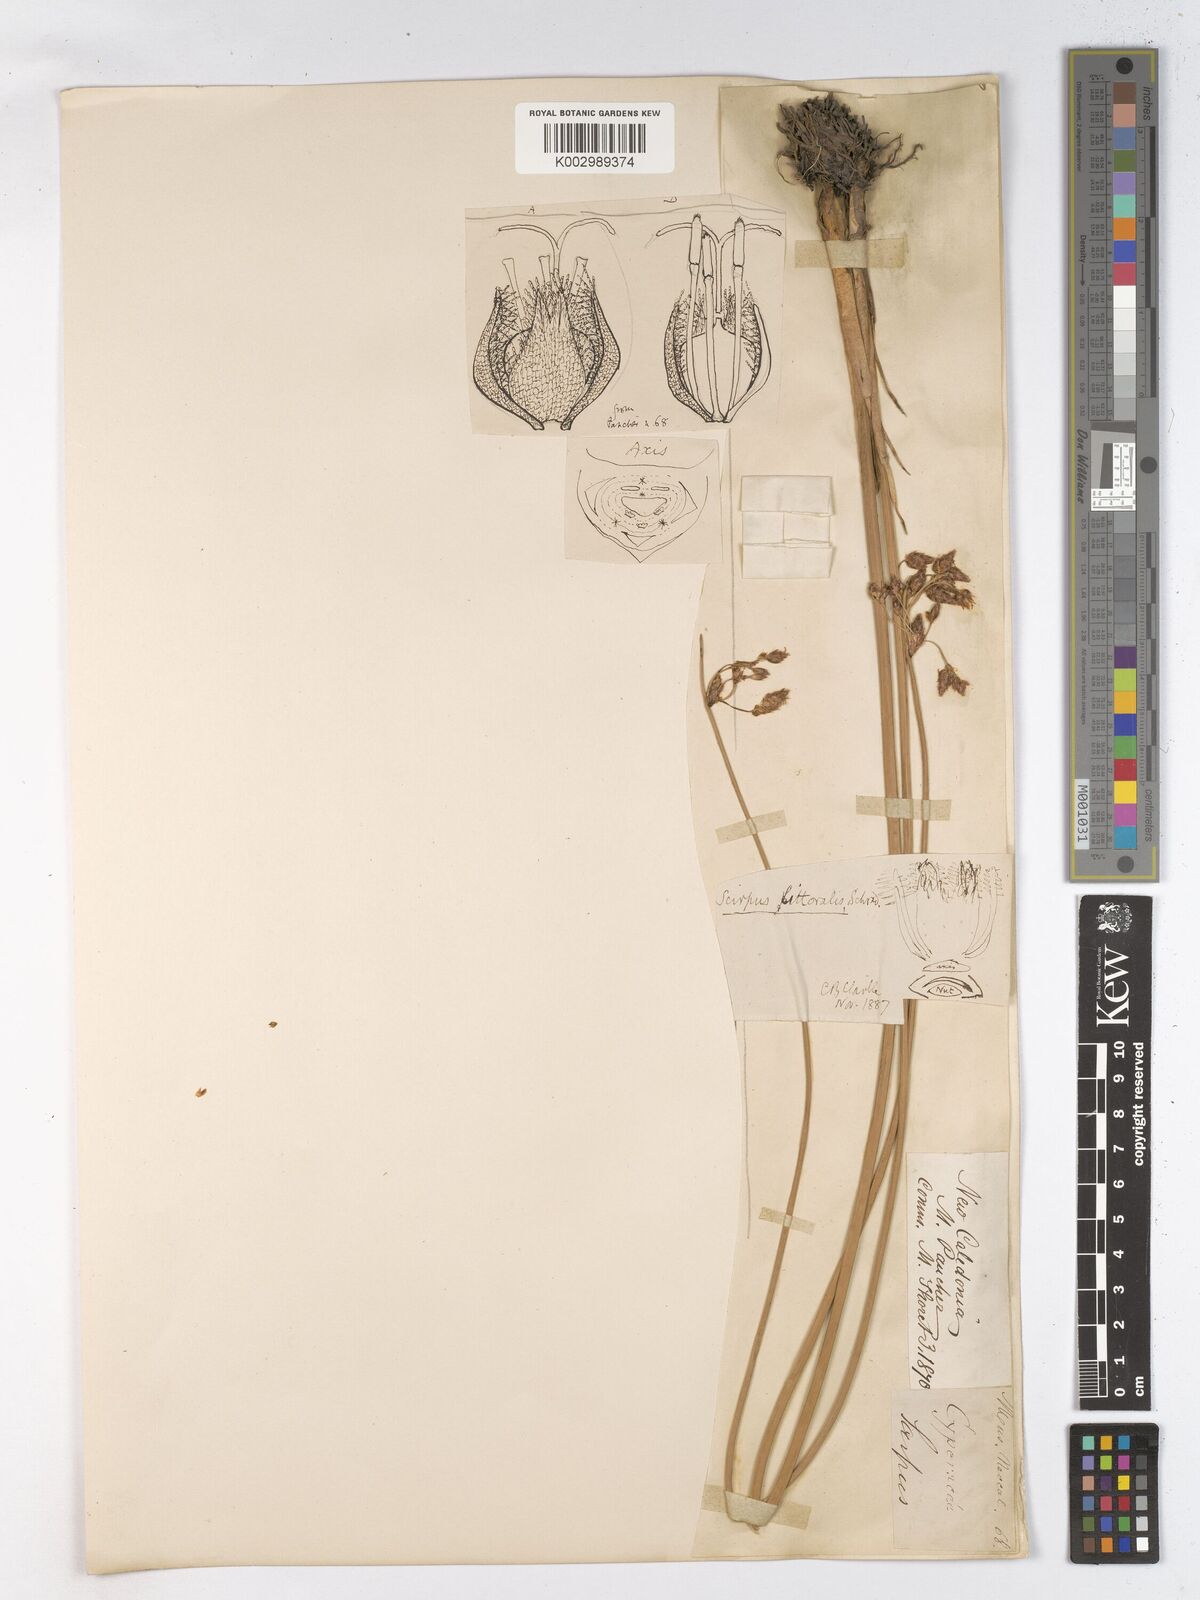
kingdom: Plantae
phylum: Tracheophyta
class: Liliopsida
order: Poales
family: Cyperaceae
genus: Schoenoplectus
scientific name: Schoenoplectus litoralis
